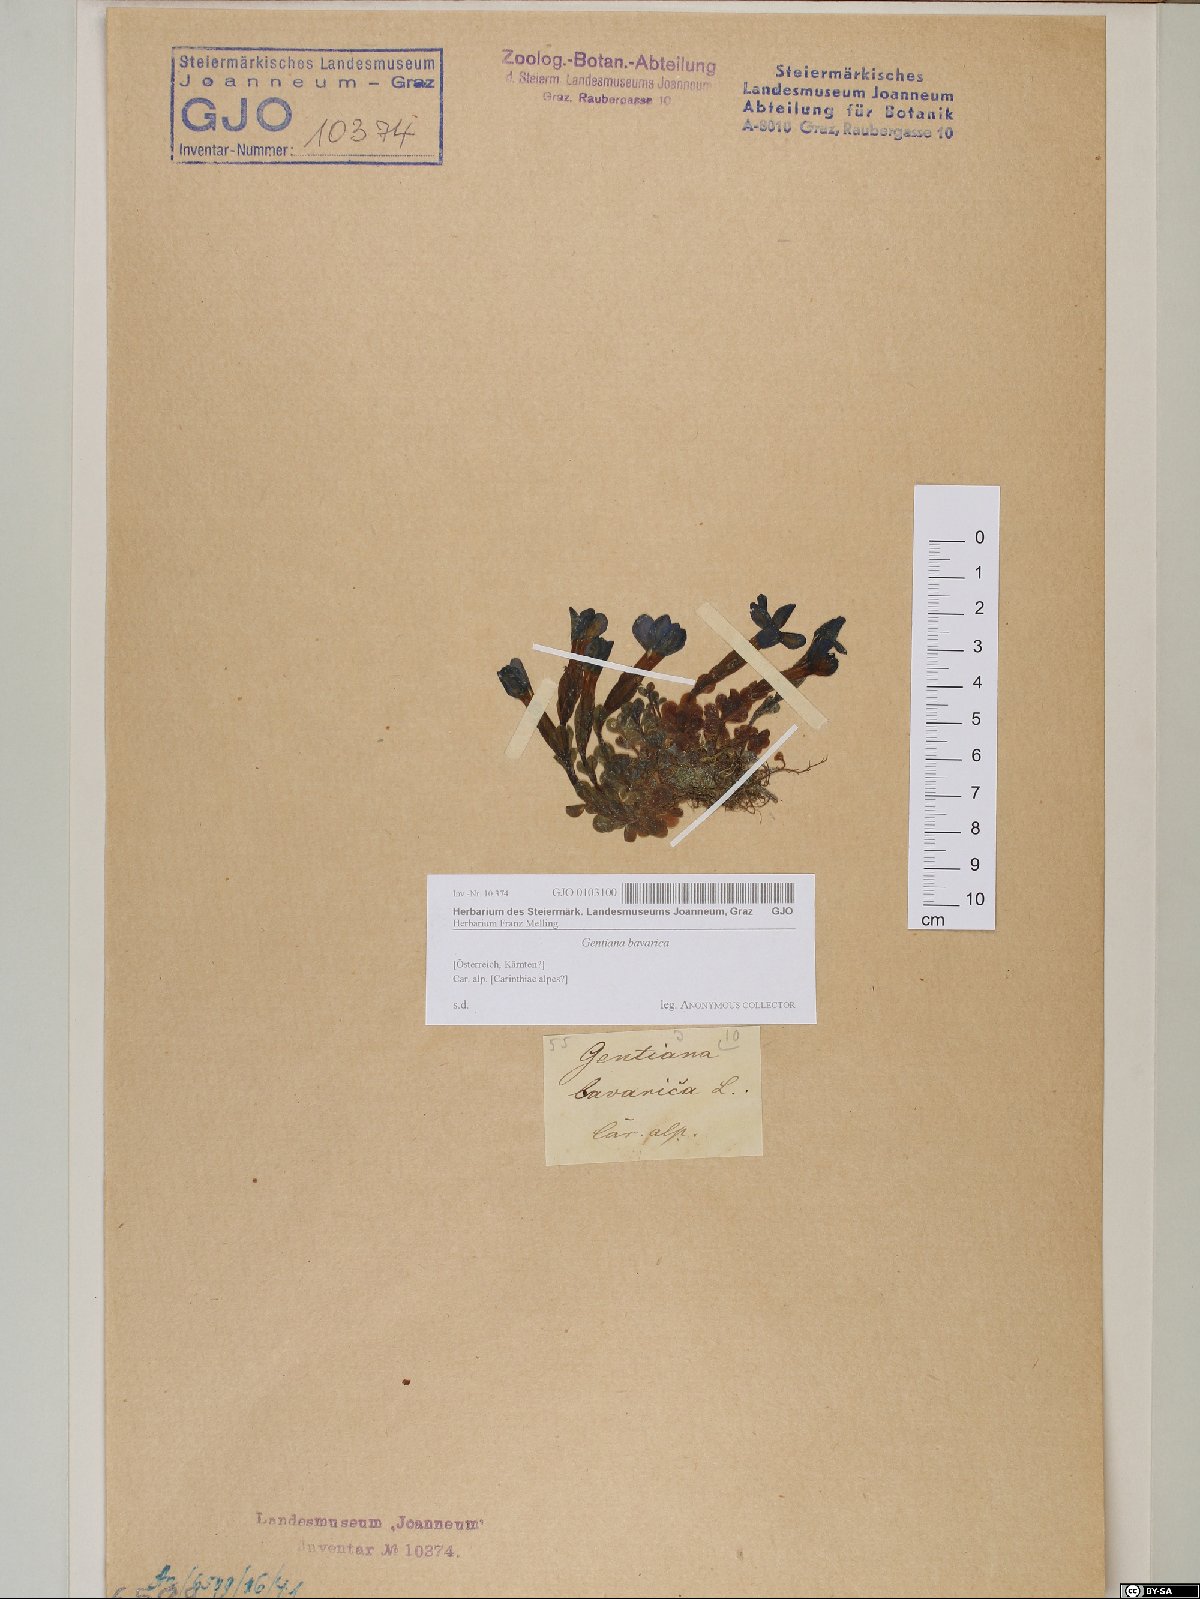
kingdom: Plantae
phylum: Tracheophyta
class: Magnoliopsida
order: Gentianales
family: Gentianaceae
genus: Gentiana
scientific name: Gentiana bavarica
